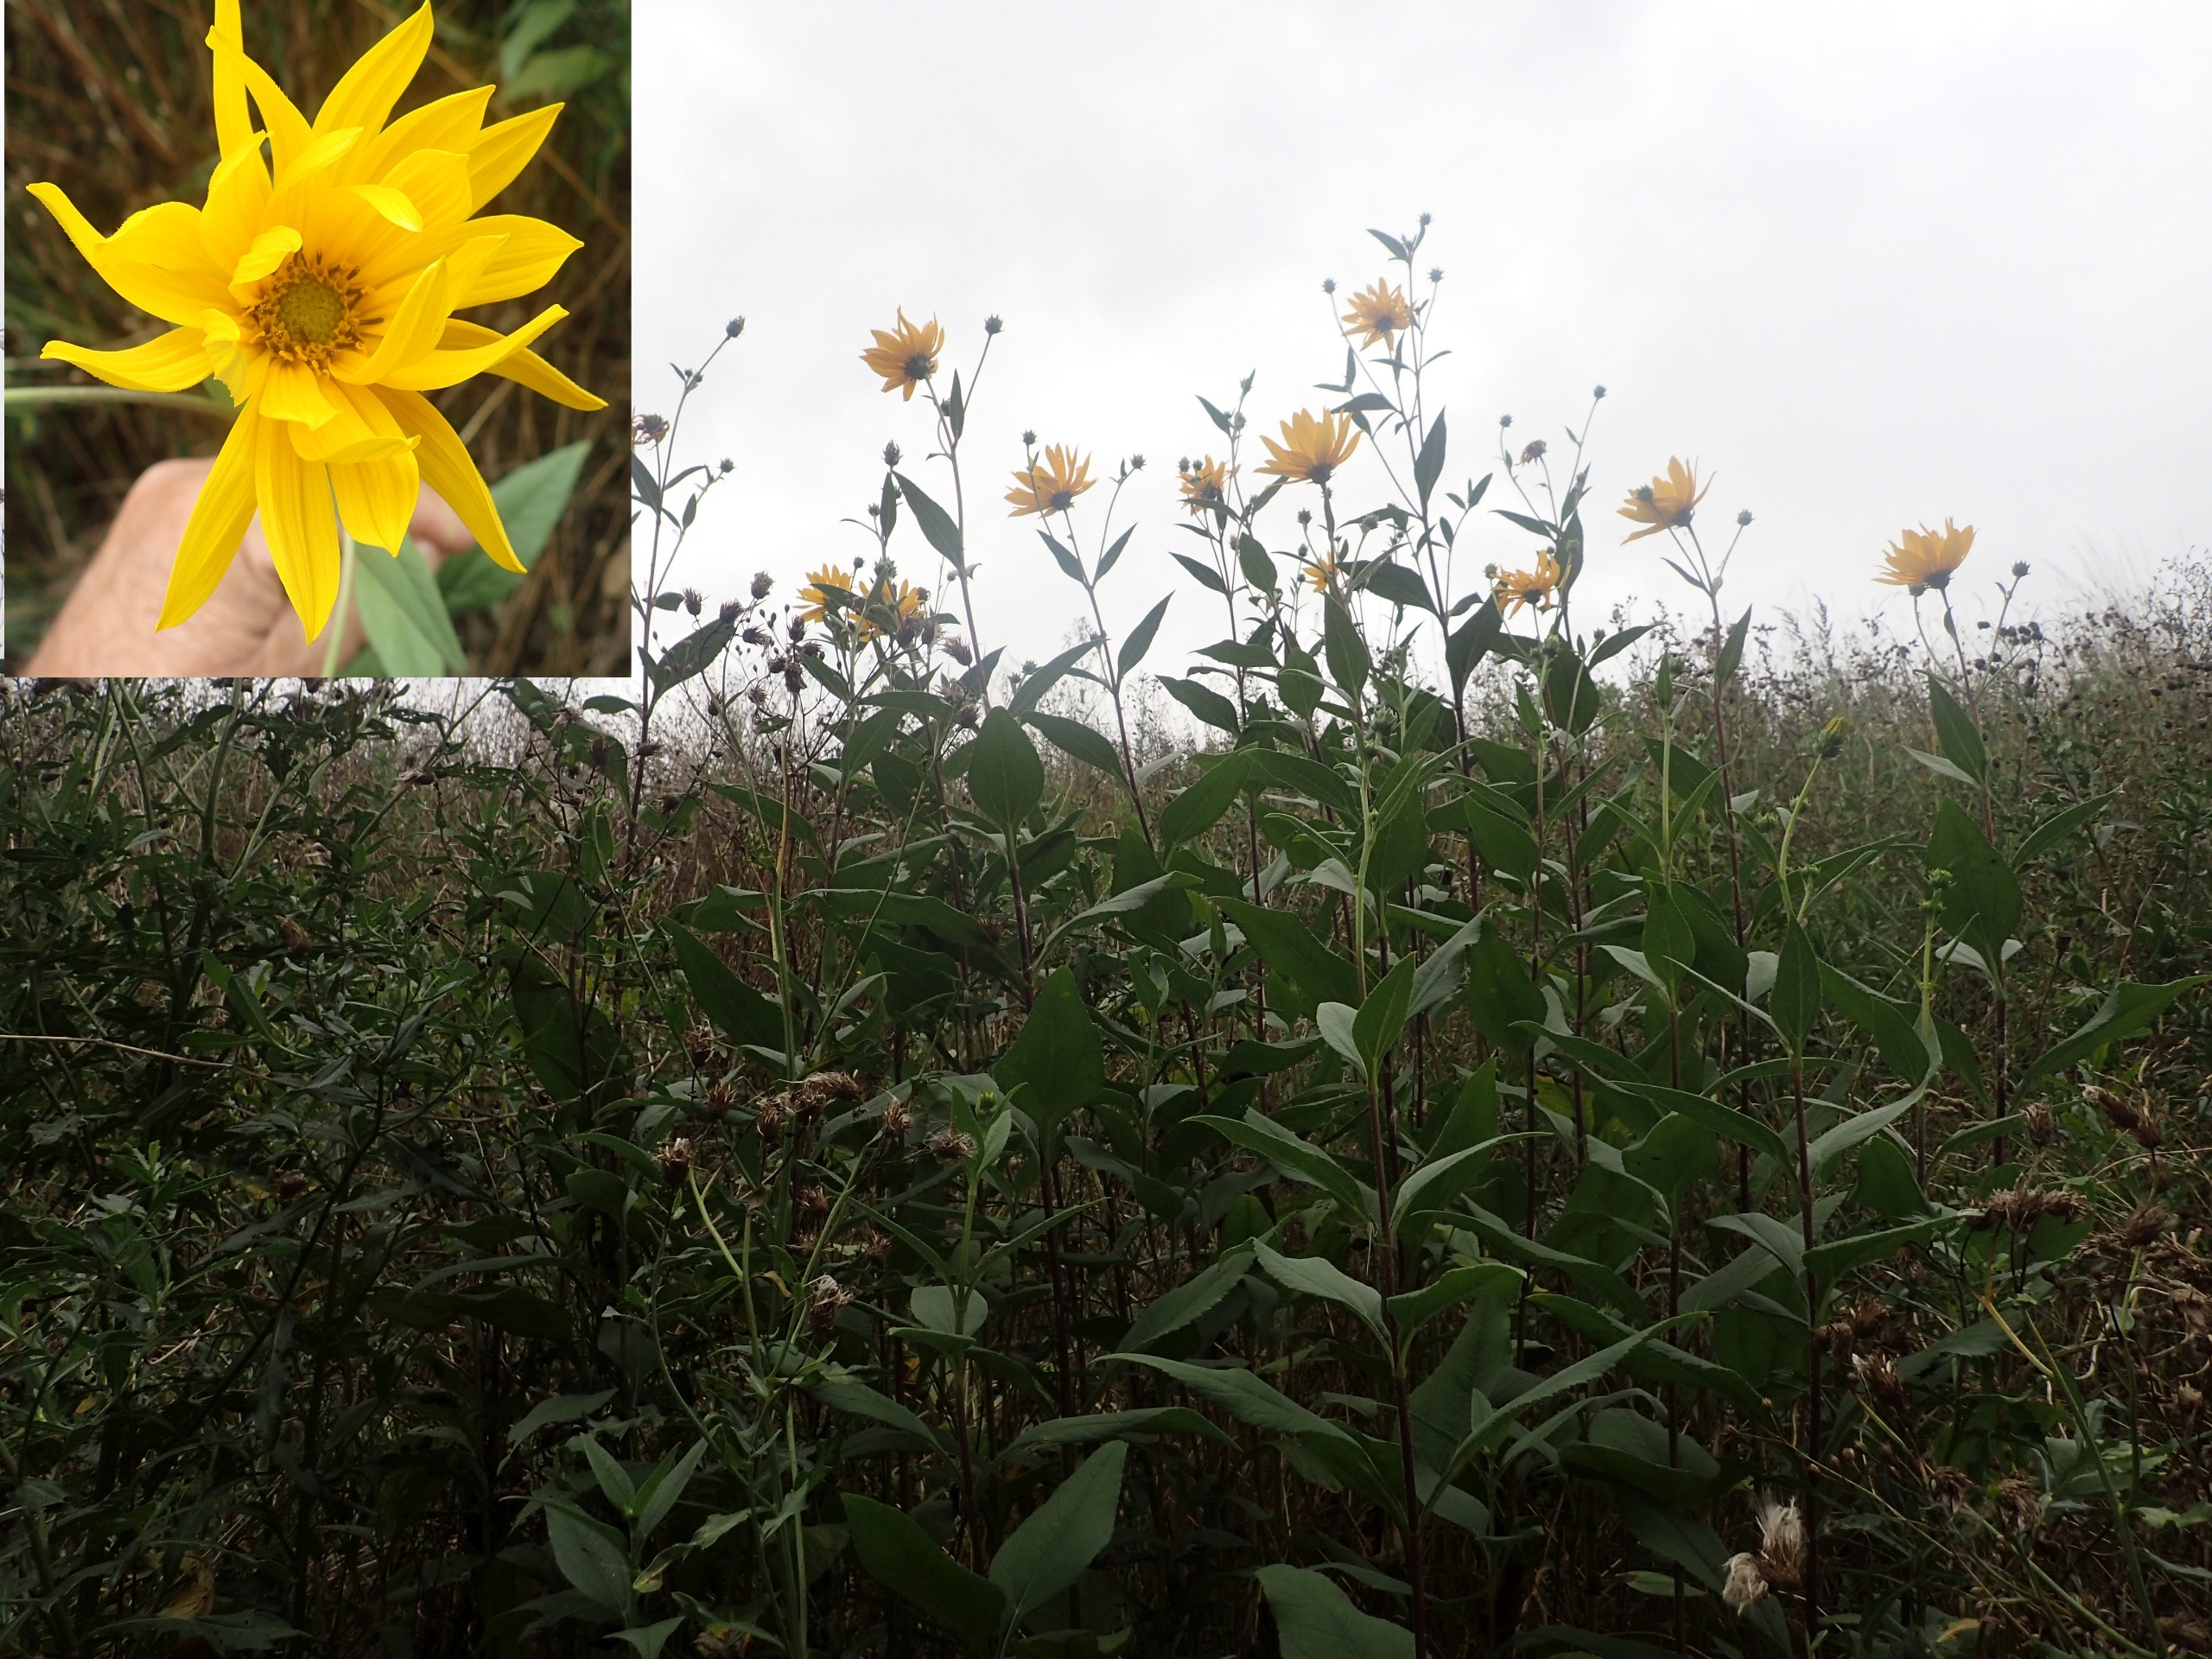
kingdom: Plantae
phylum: Tracheophyta
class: Magnoliopsida
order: Asterales
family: Asteraceae
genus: Helianthus
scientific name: Helianthus tuberosus
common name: Jordskok
